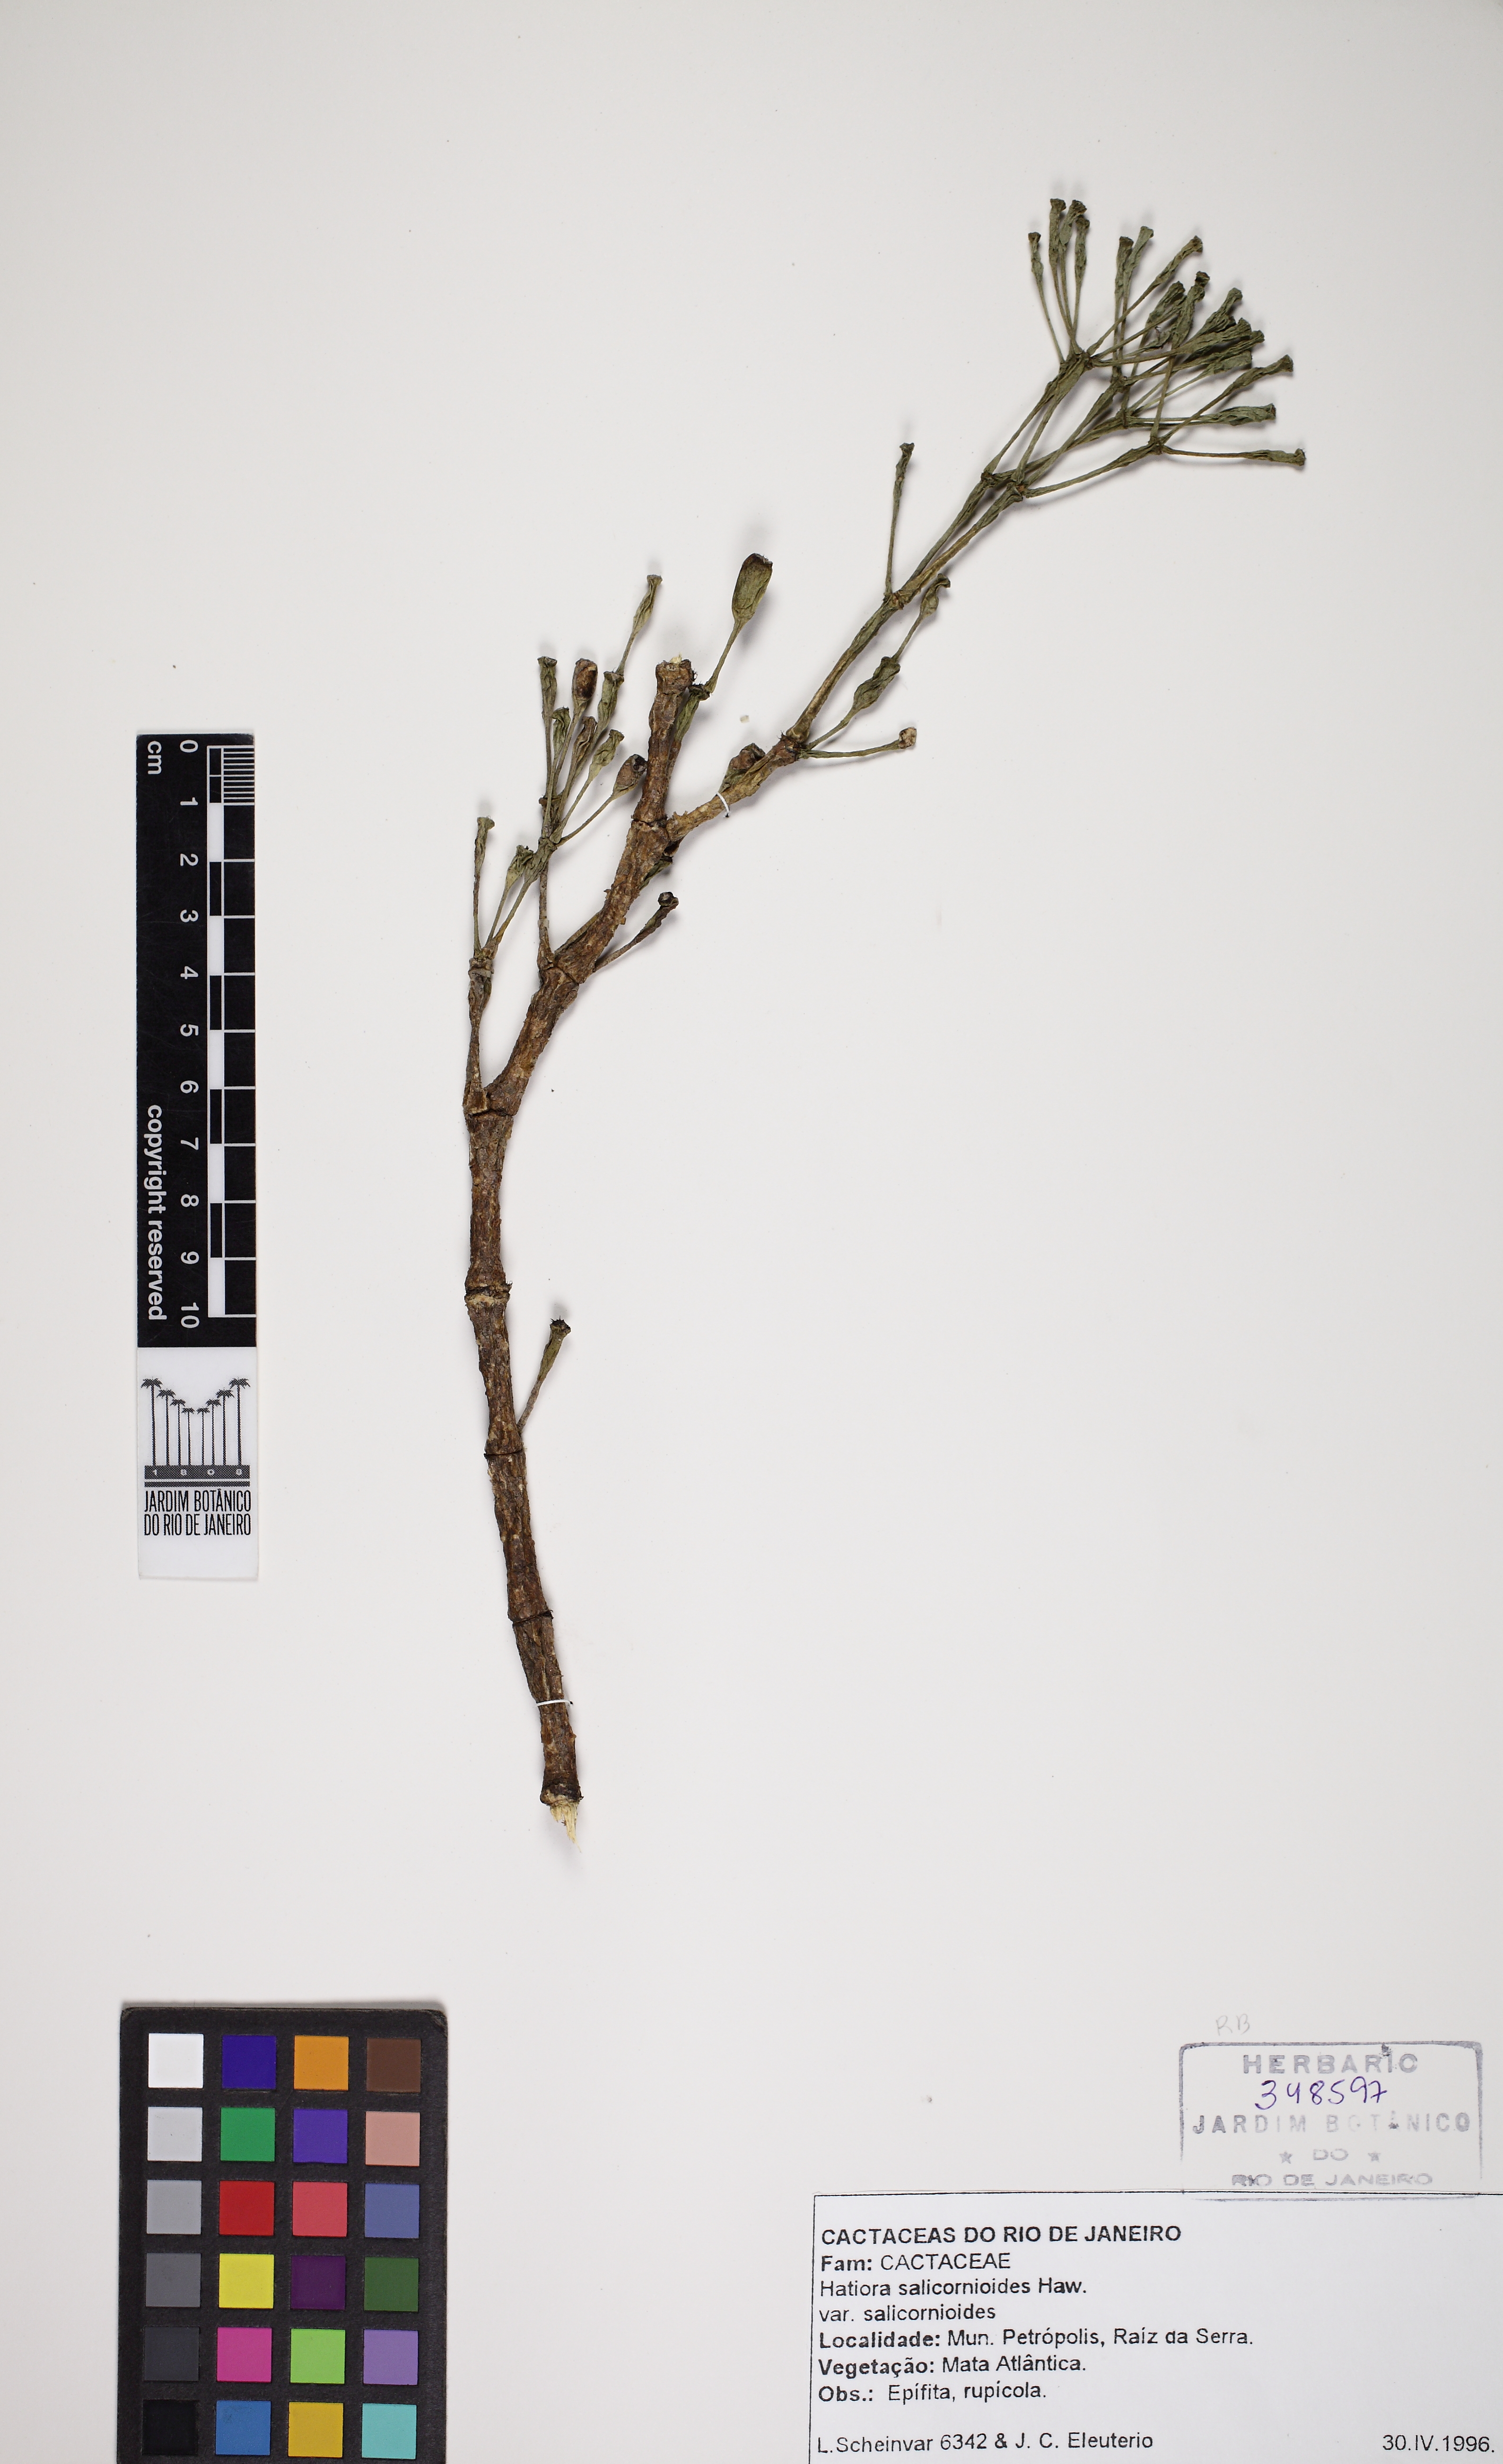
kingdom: Plantae
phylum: Tracheophyta
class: Magnoliopsida
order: Caryophyllales
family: Cactaceae
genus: Hatiora
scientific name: Hatiora salicornioides
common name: Dancing-bones
